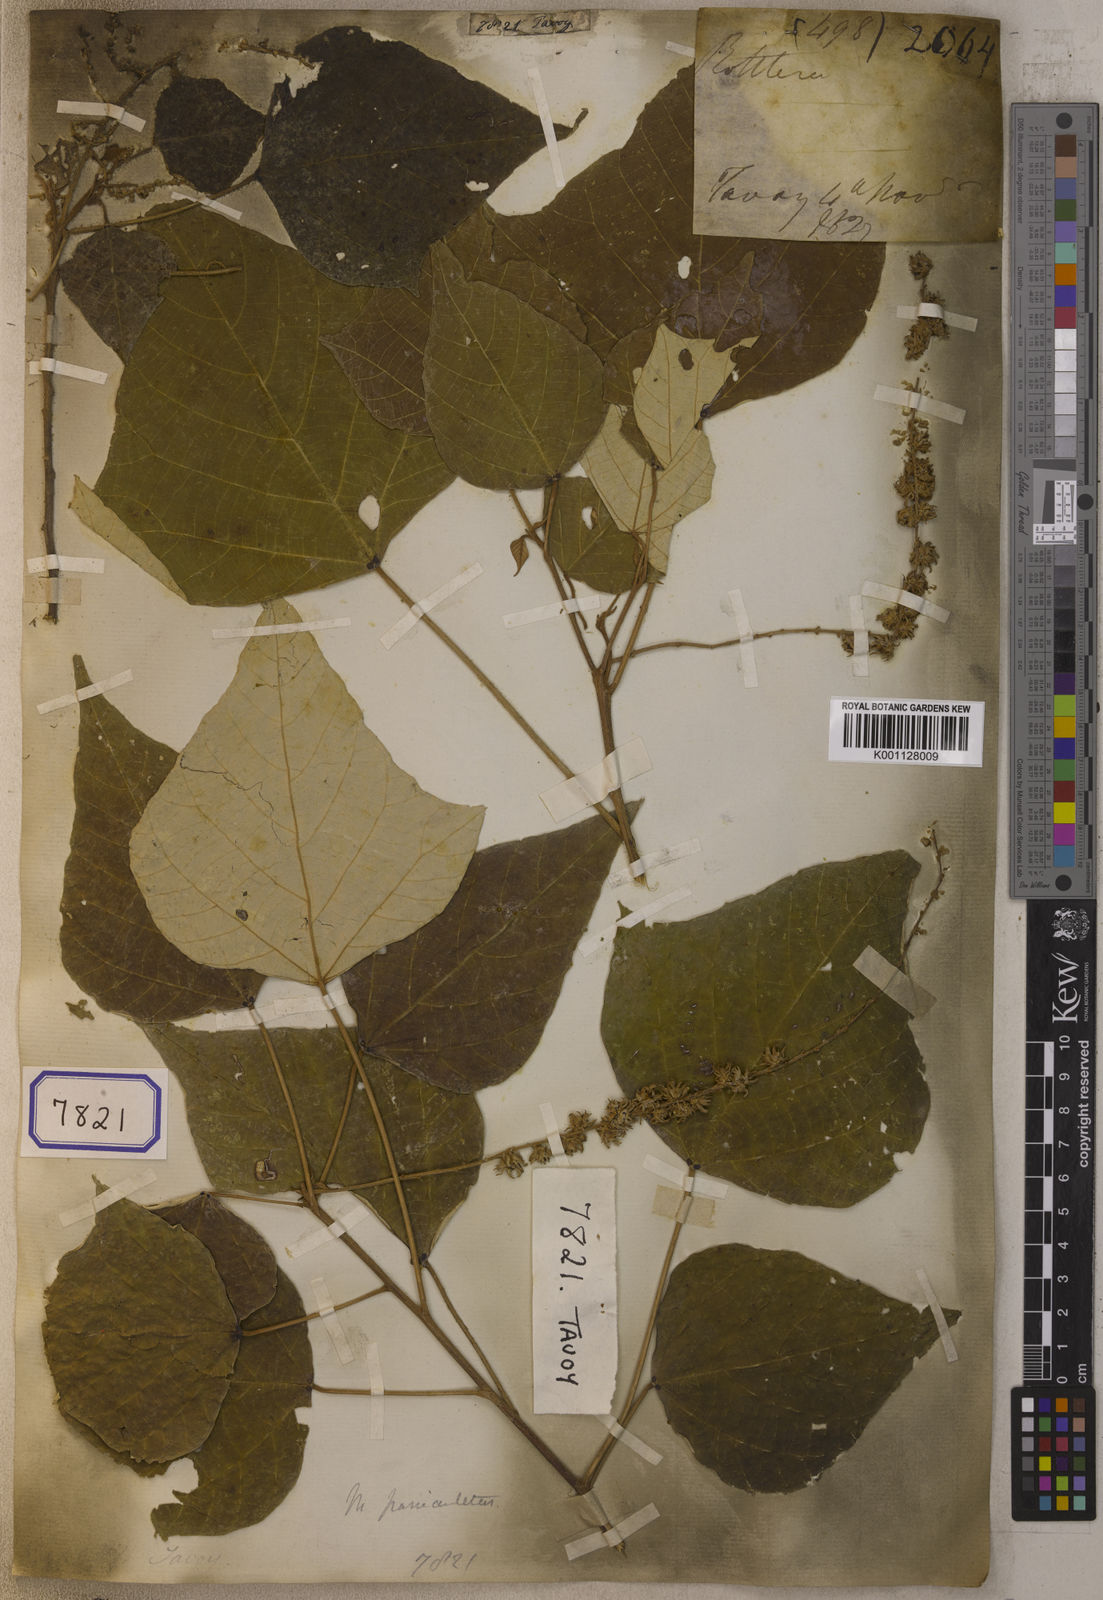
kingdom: Plantae
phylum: Tracheophyta
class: Magnoliopsida
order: Malpighiales
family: Euphorbiaceae
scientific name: Euphorbiaceae
